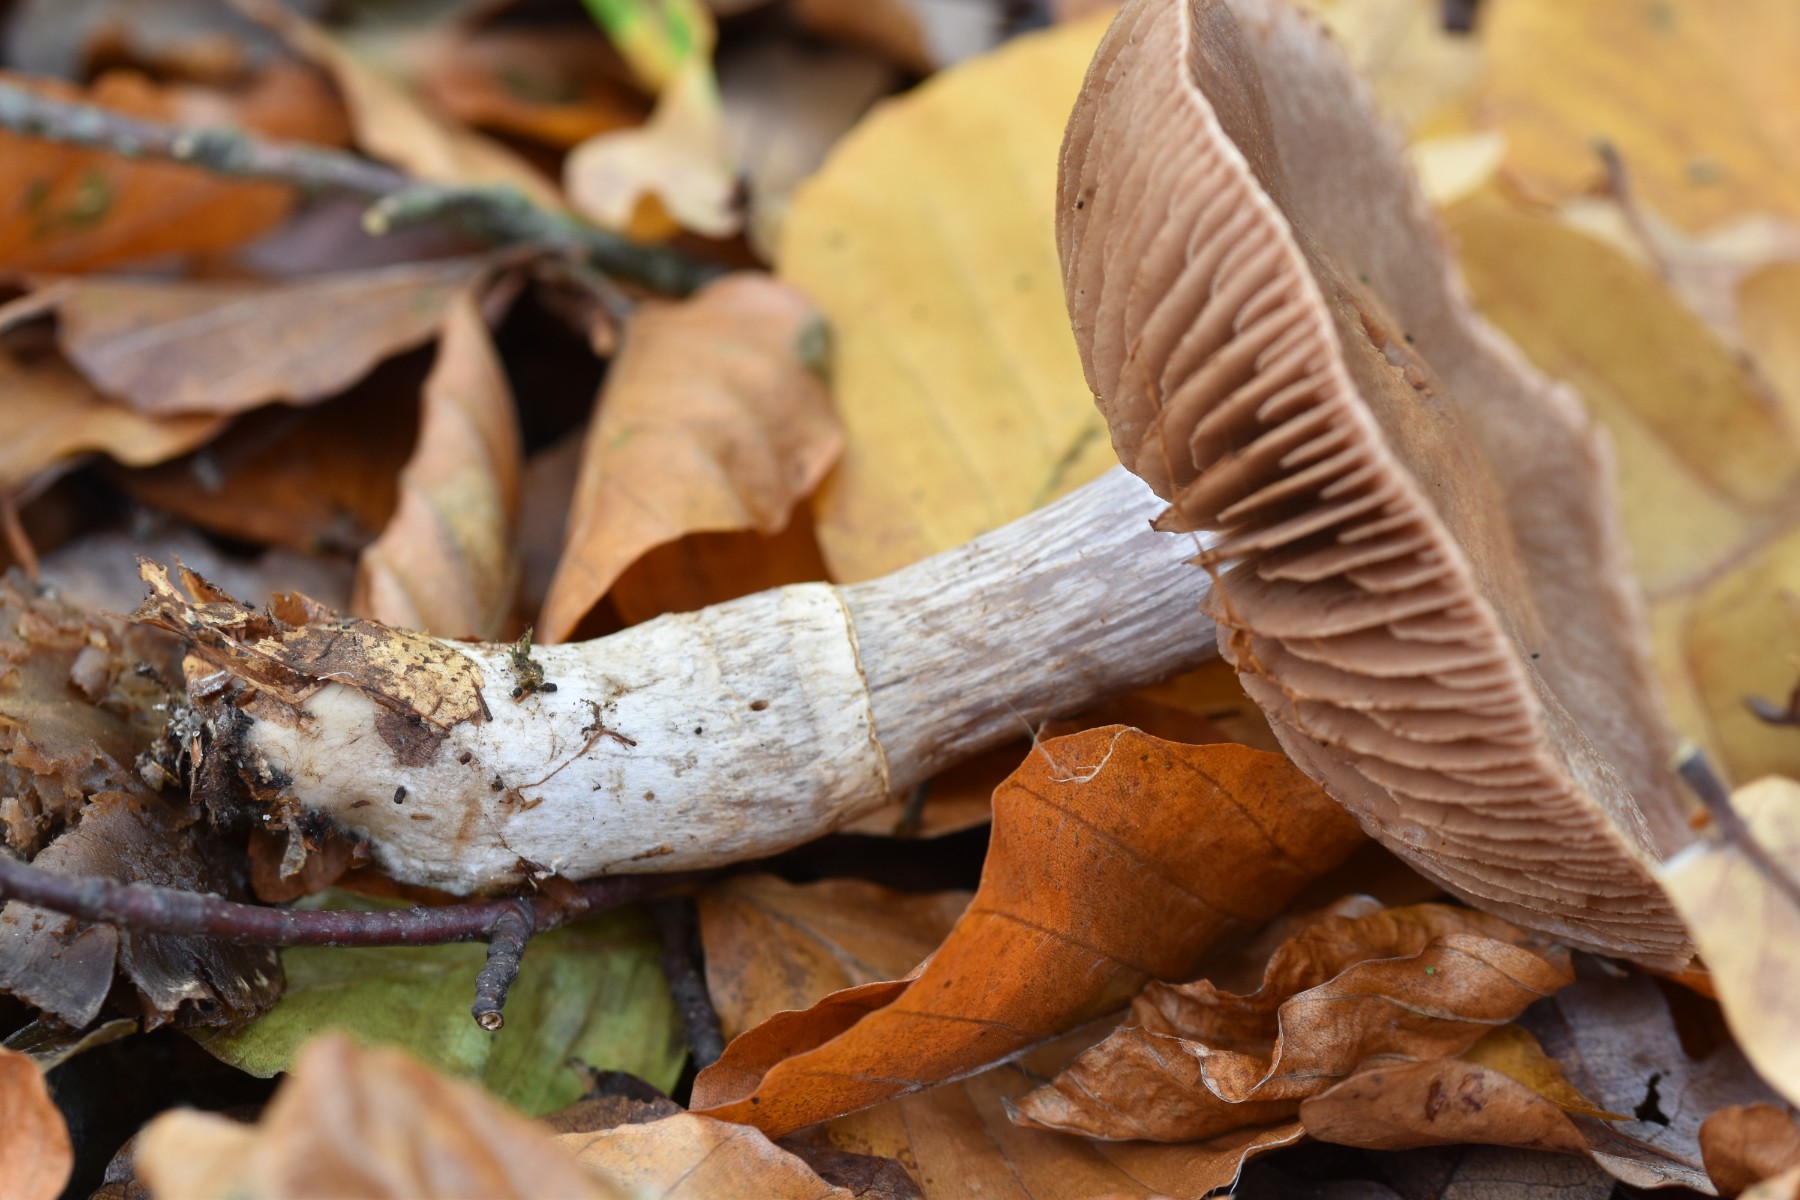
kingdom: Fungi
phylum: Basidiomycota
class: Agaricomycetes
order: Agaricales
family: Cortinariaceae
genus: Cortinarius
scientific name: Cortinarius torvus
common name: champignonagtig slørhat
